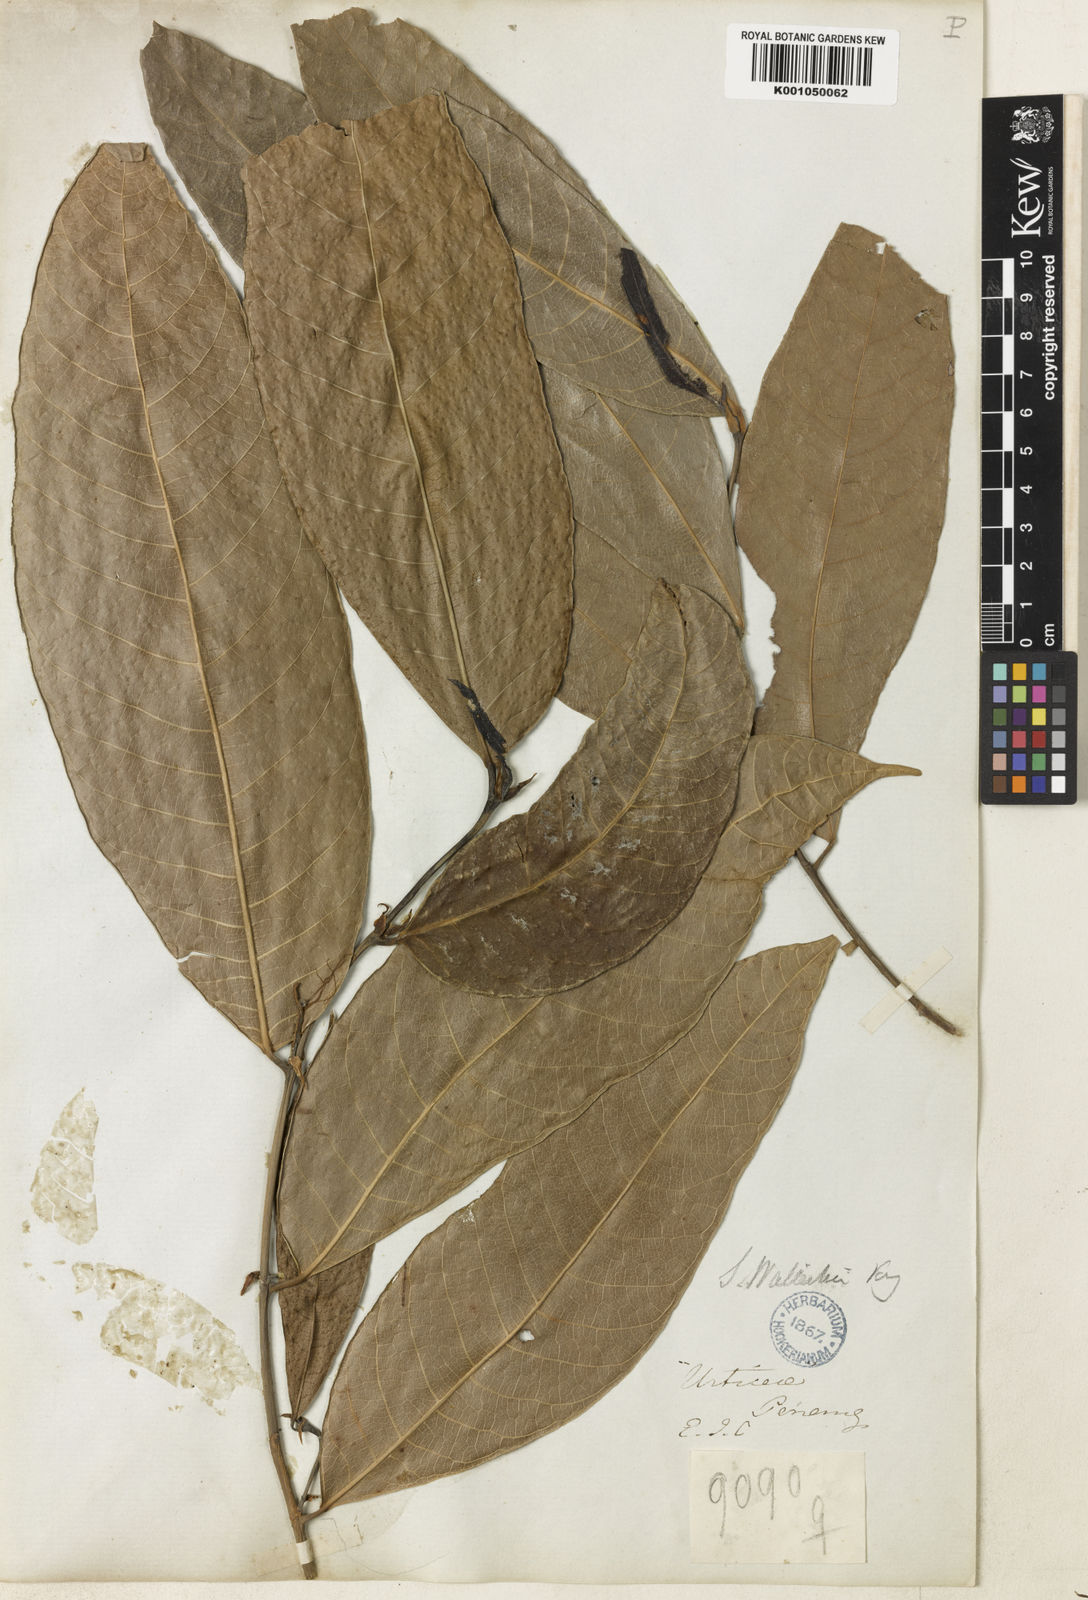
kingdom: Plantae
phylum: Tracheophyta
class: Magnoliopsida
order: Rosales
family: Moraceae
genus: Sloetia
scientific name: Sloetia elongata
